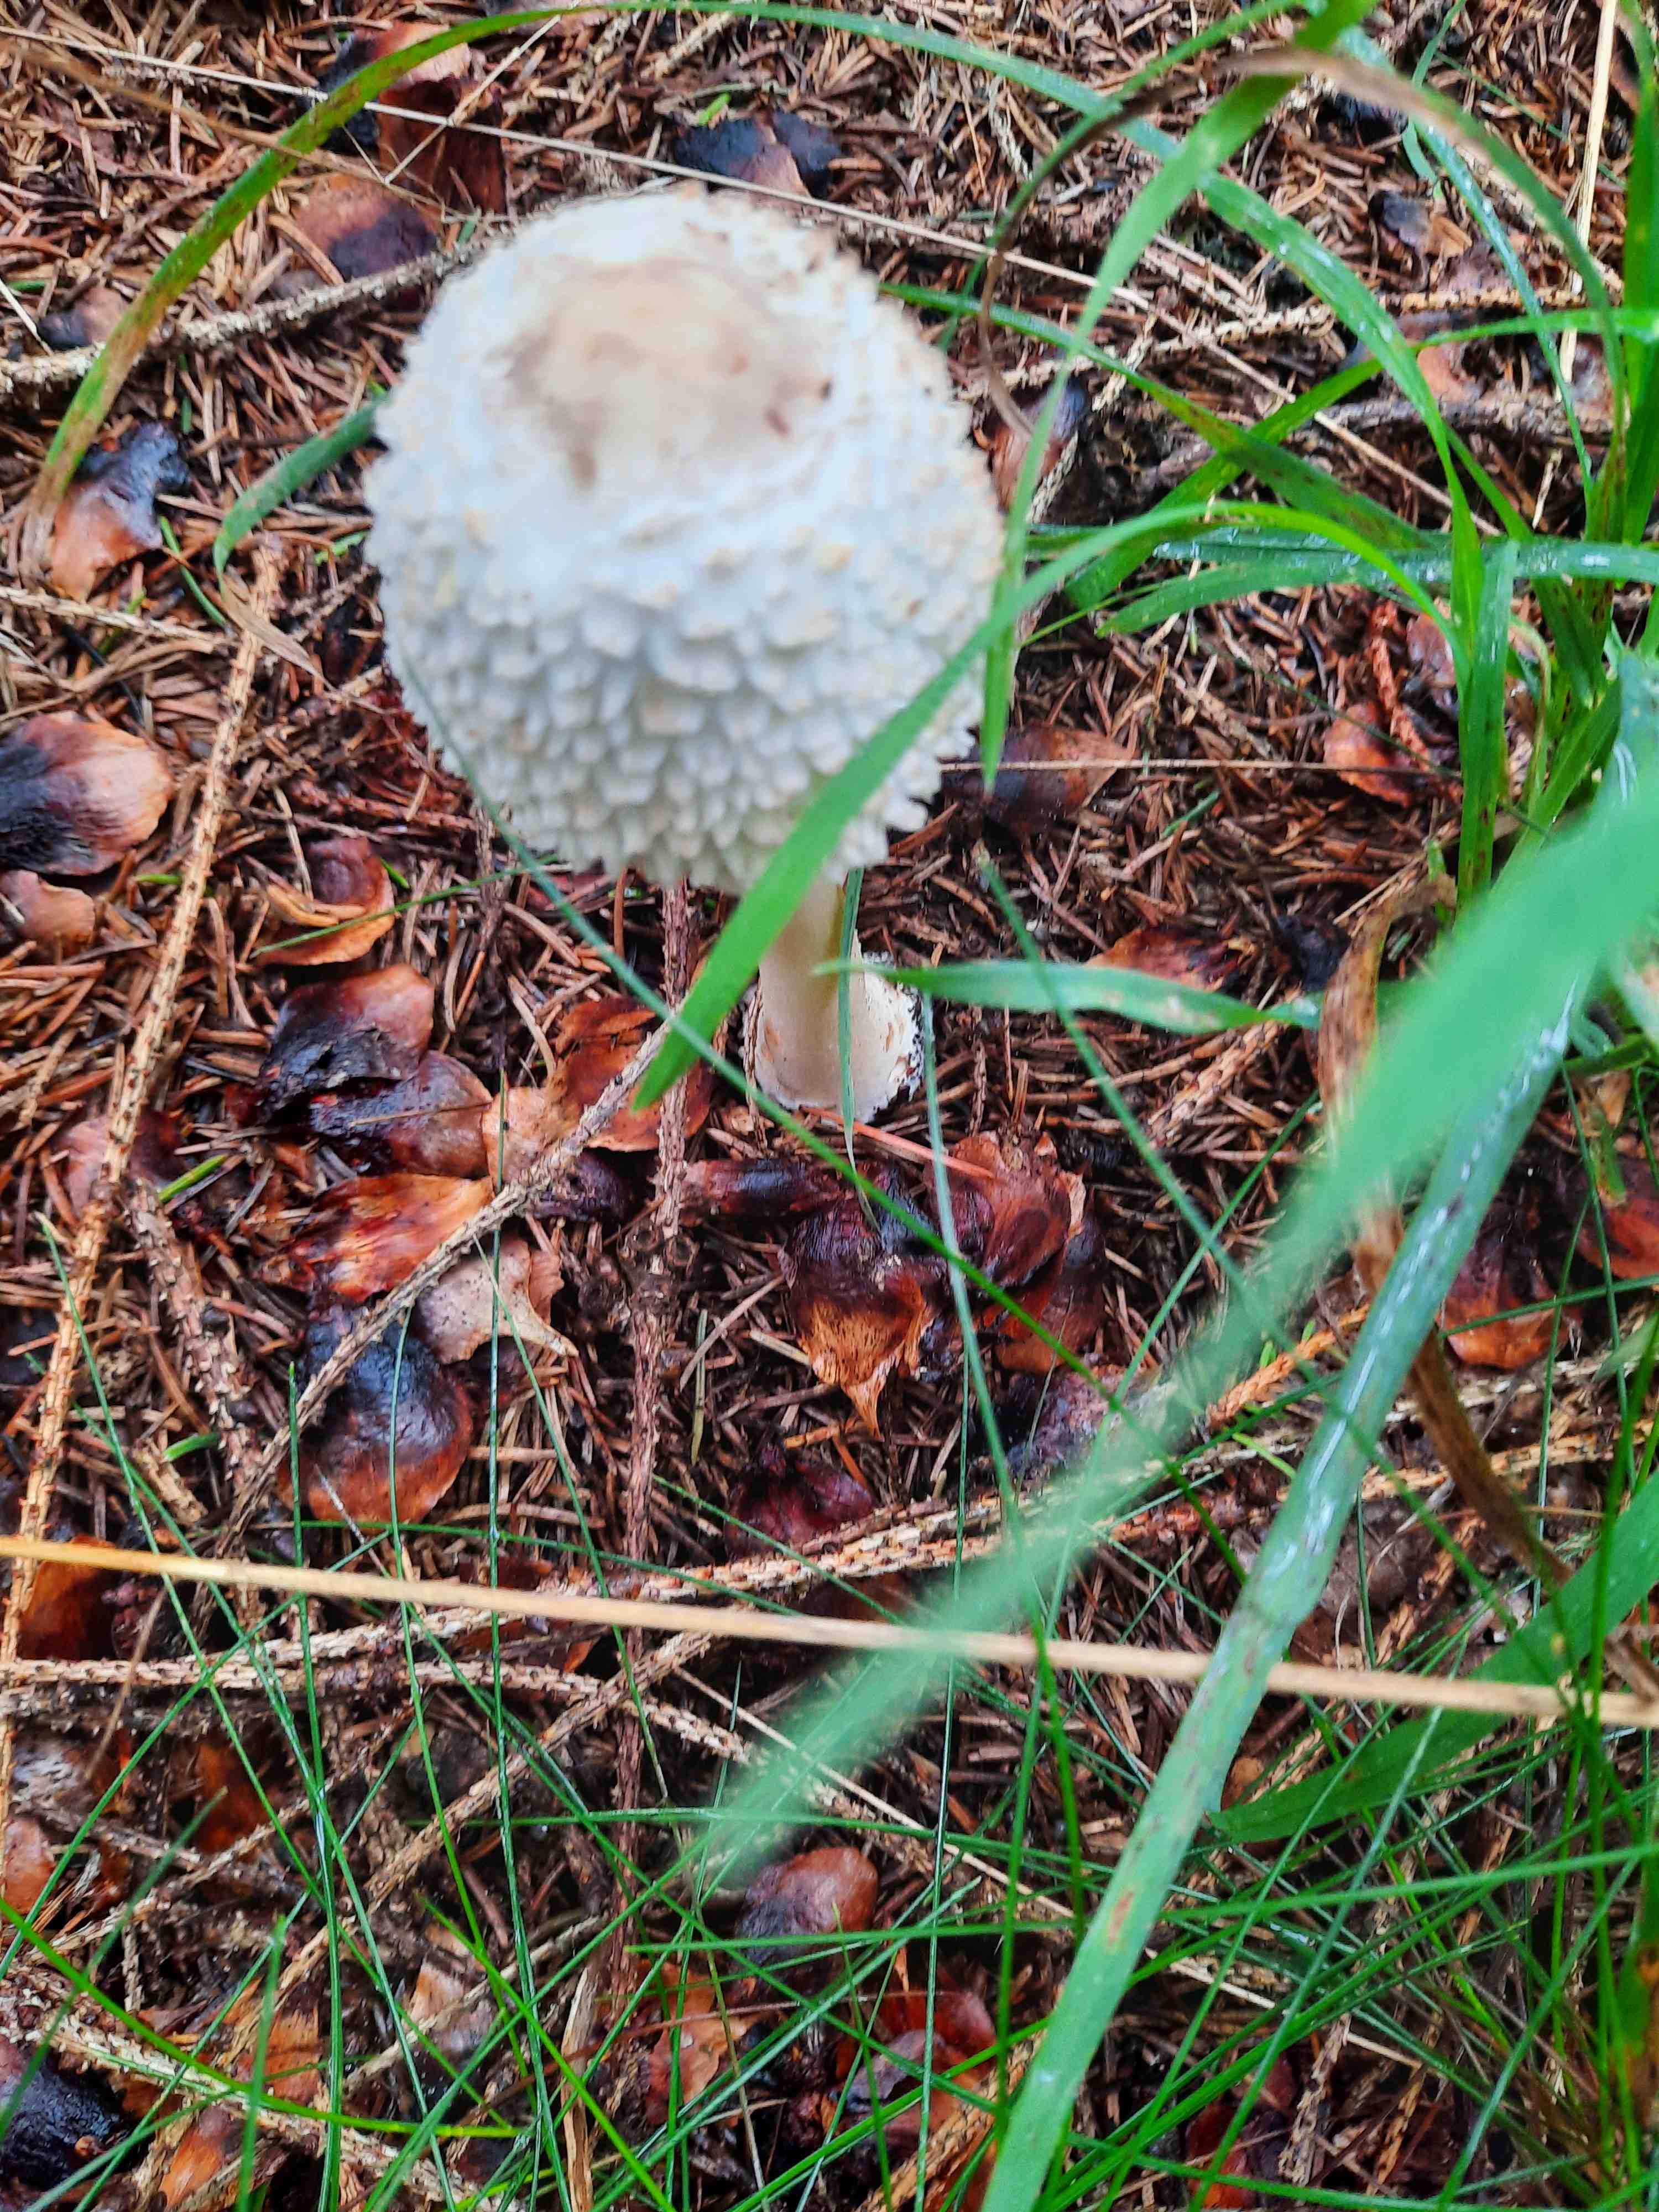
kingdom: Fungi
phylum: Basidiomycota
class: Agaricomycetes
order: Agaricales
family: Agaricaceae
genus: Leucoagaricus
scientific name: Leucoagaricus nympharum
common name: gran-silkehat
